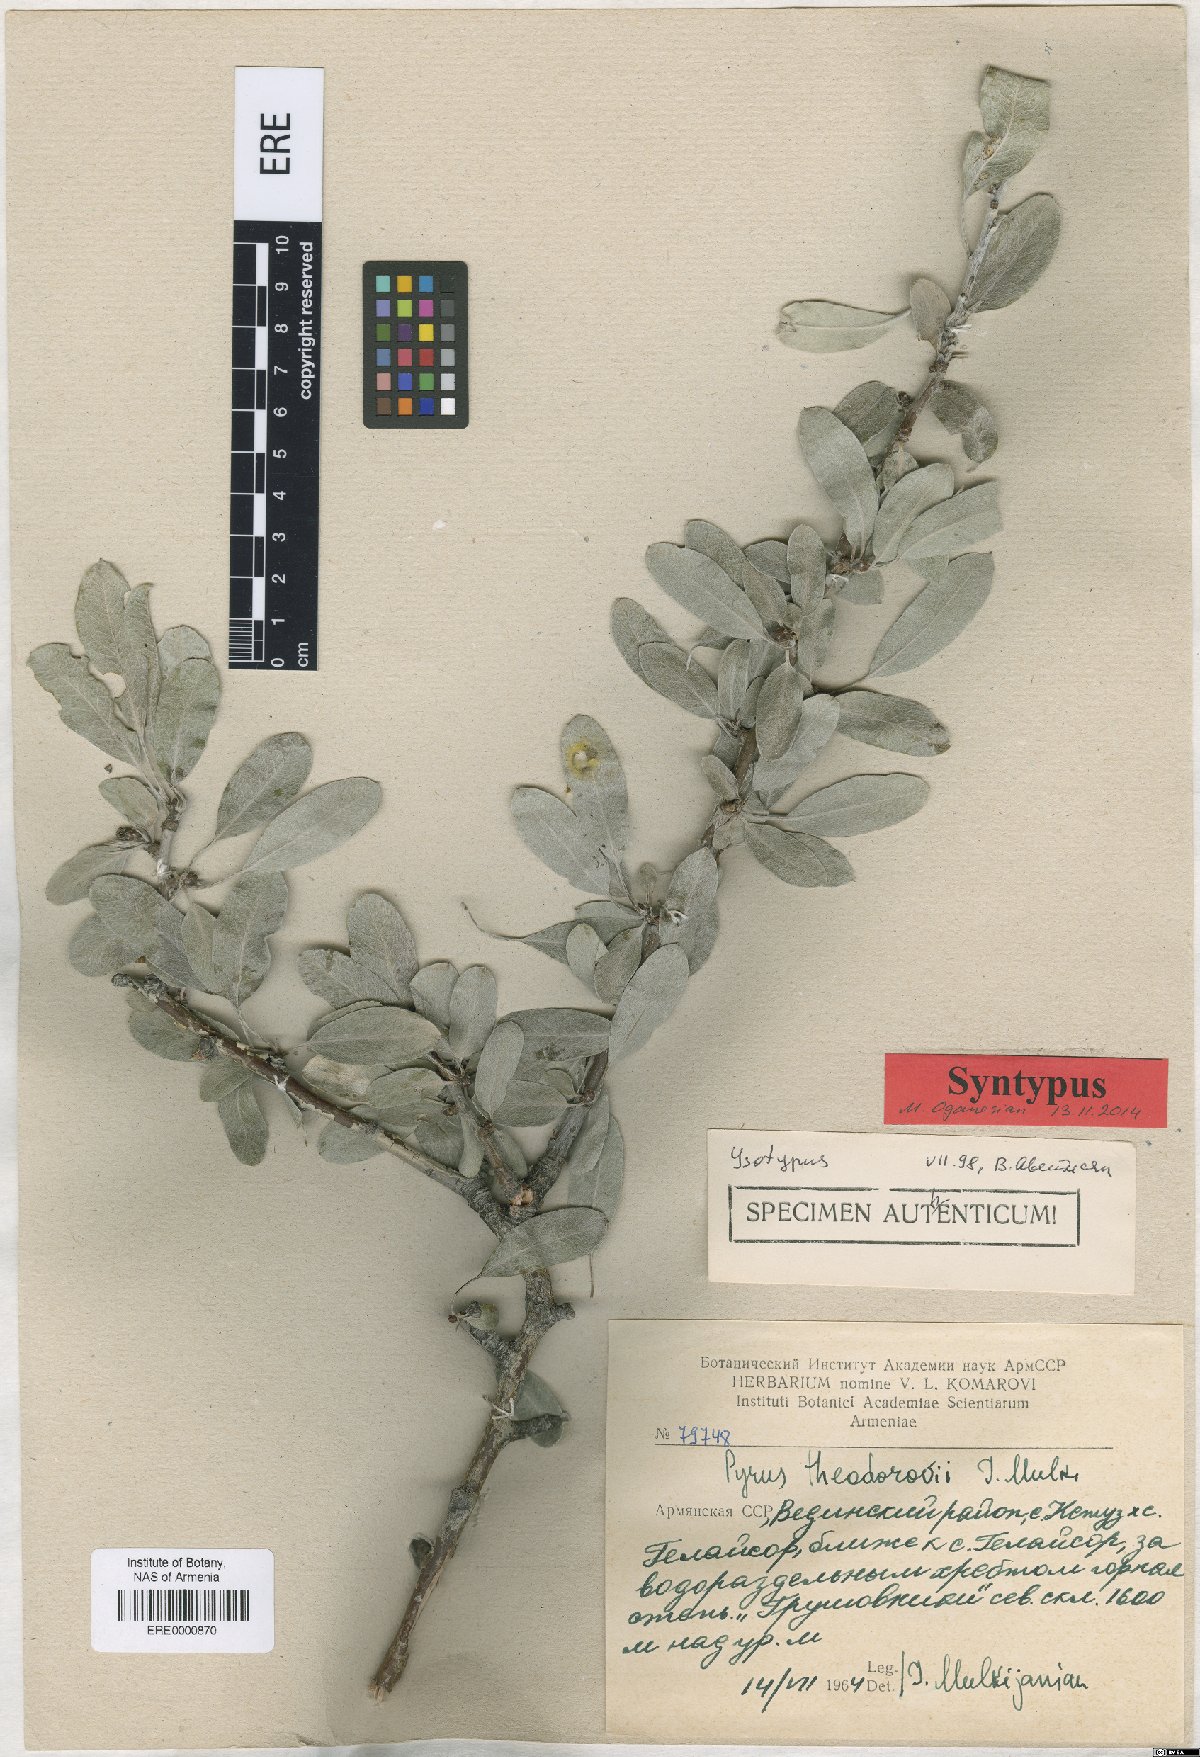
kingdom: Plantae
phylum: Tracheophyta
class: Magnoliopsida
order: Rosales
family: Rosaceae
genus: Pyrus
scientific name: Pyrus theodorovii
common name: Teodorov's pear
